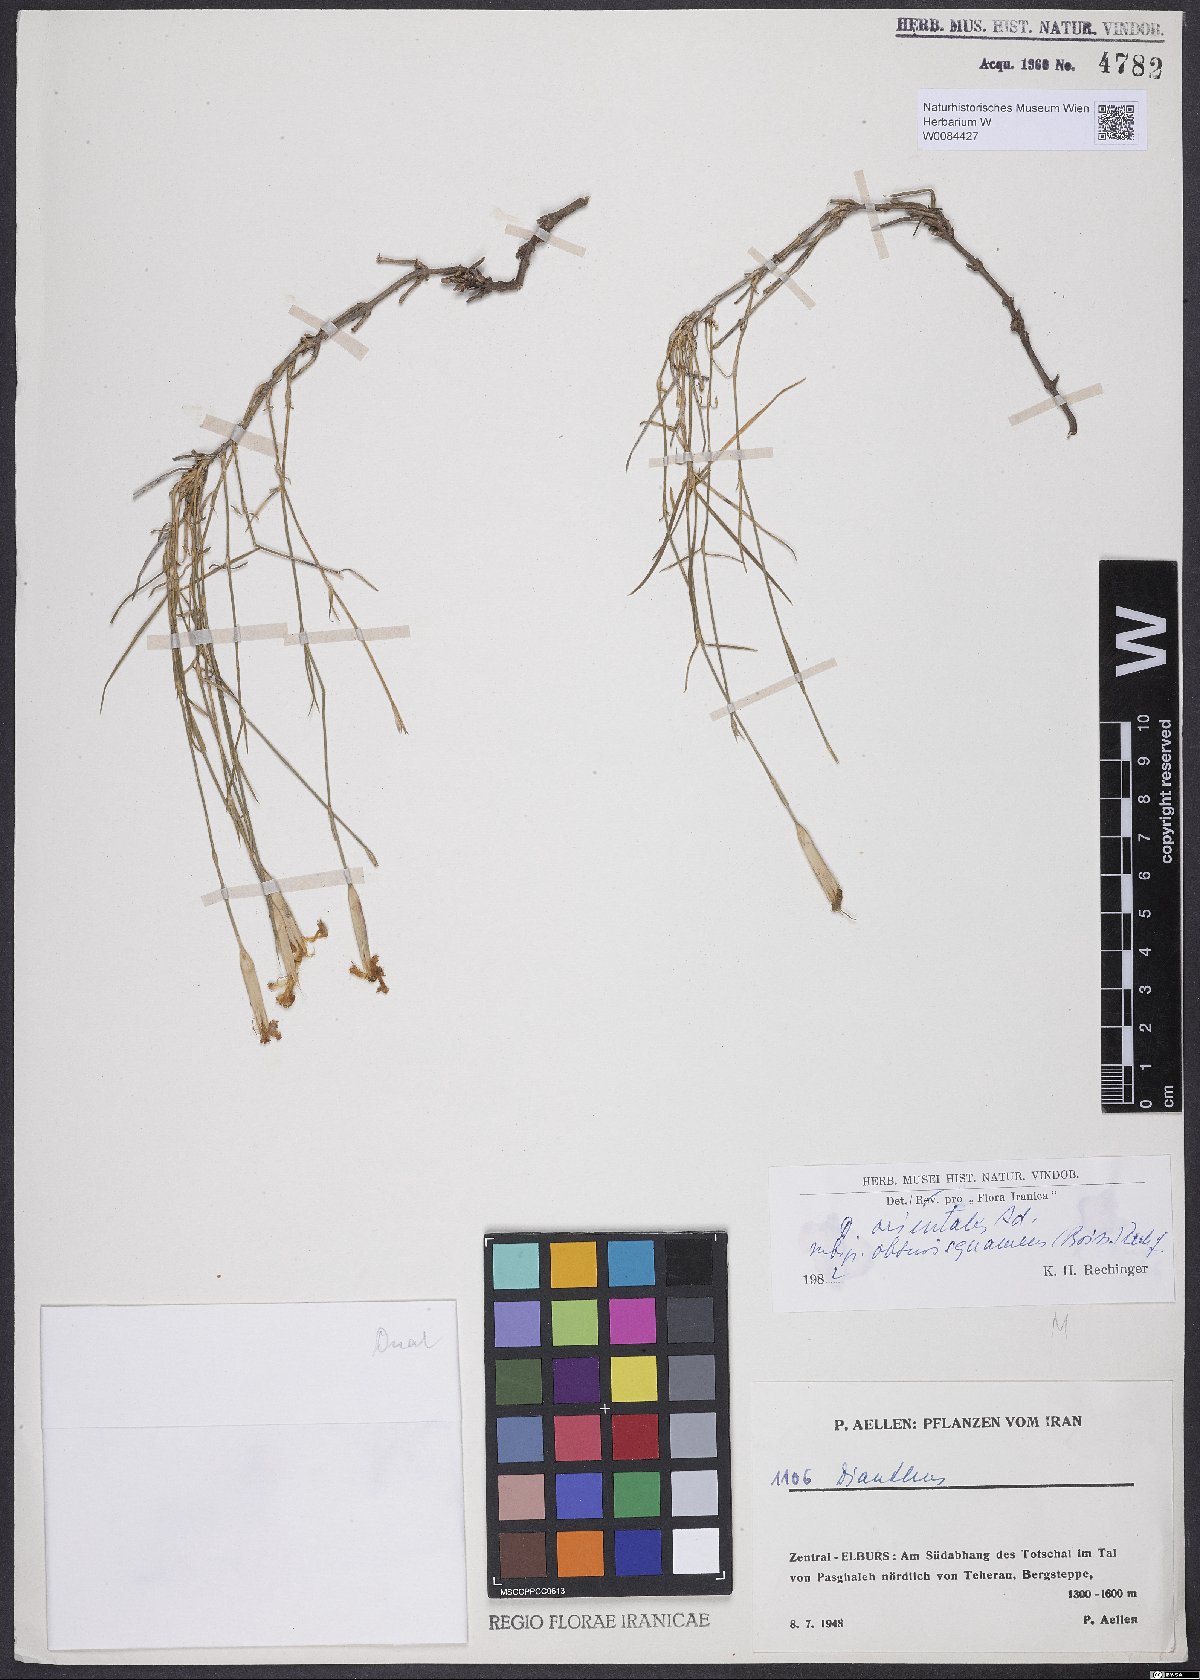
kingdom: Plantae
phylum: Tracheophyta
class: Magnoliopsida
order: Caryophyllales
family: Caryophyllaceae
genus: Dianthus
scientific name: Dianthus orientalis
